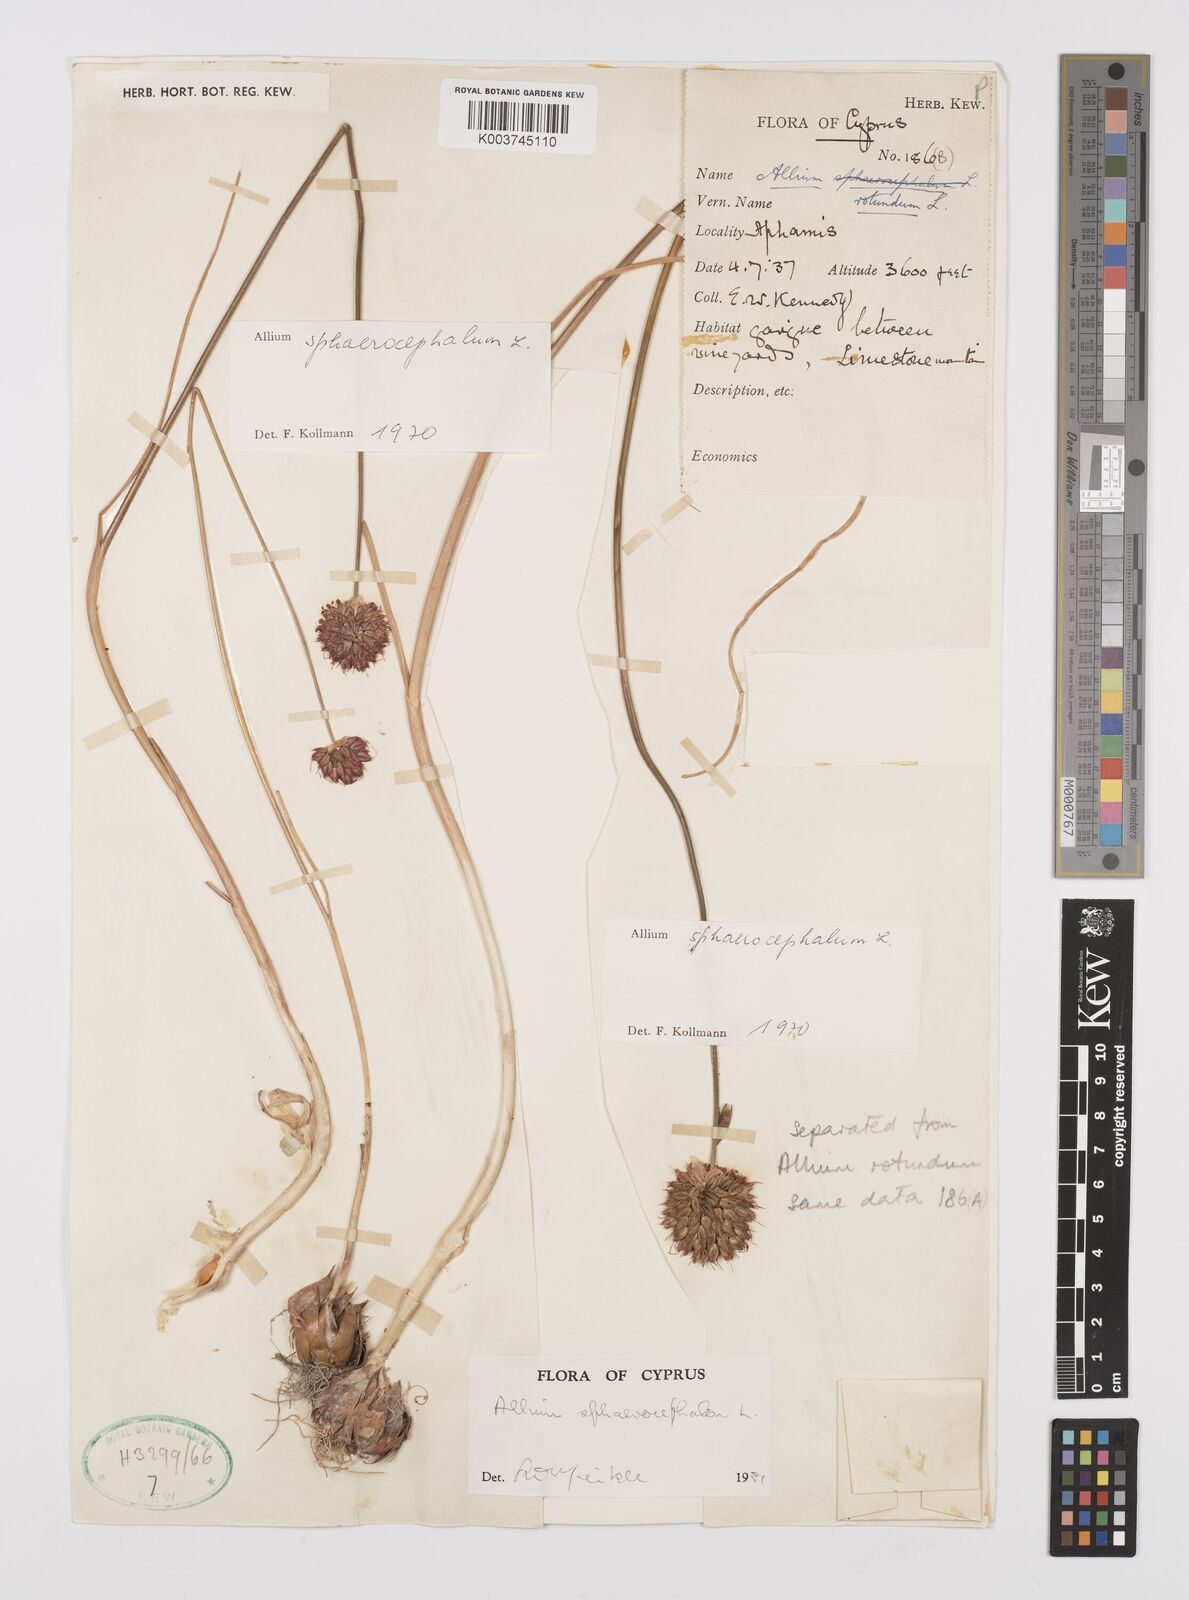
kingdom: Plantae
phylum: Tracheophyta
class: Liliopsida
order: Asparagales
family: Amaryllidaceae
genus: Allium
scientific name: Allium vineale
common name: Crow garlic
